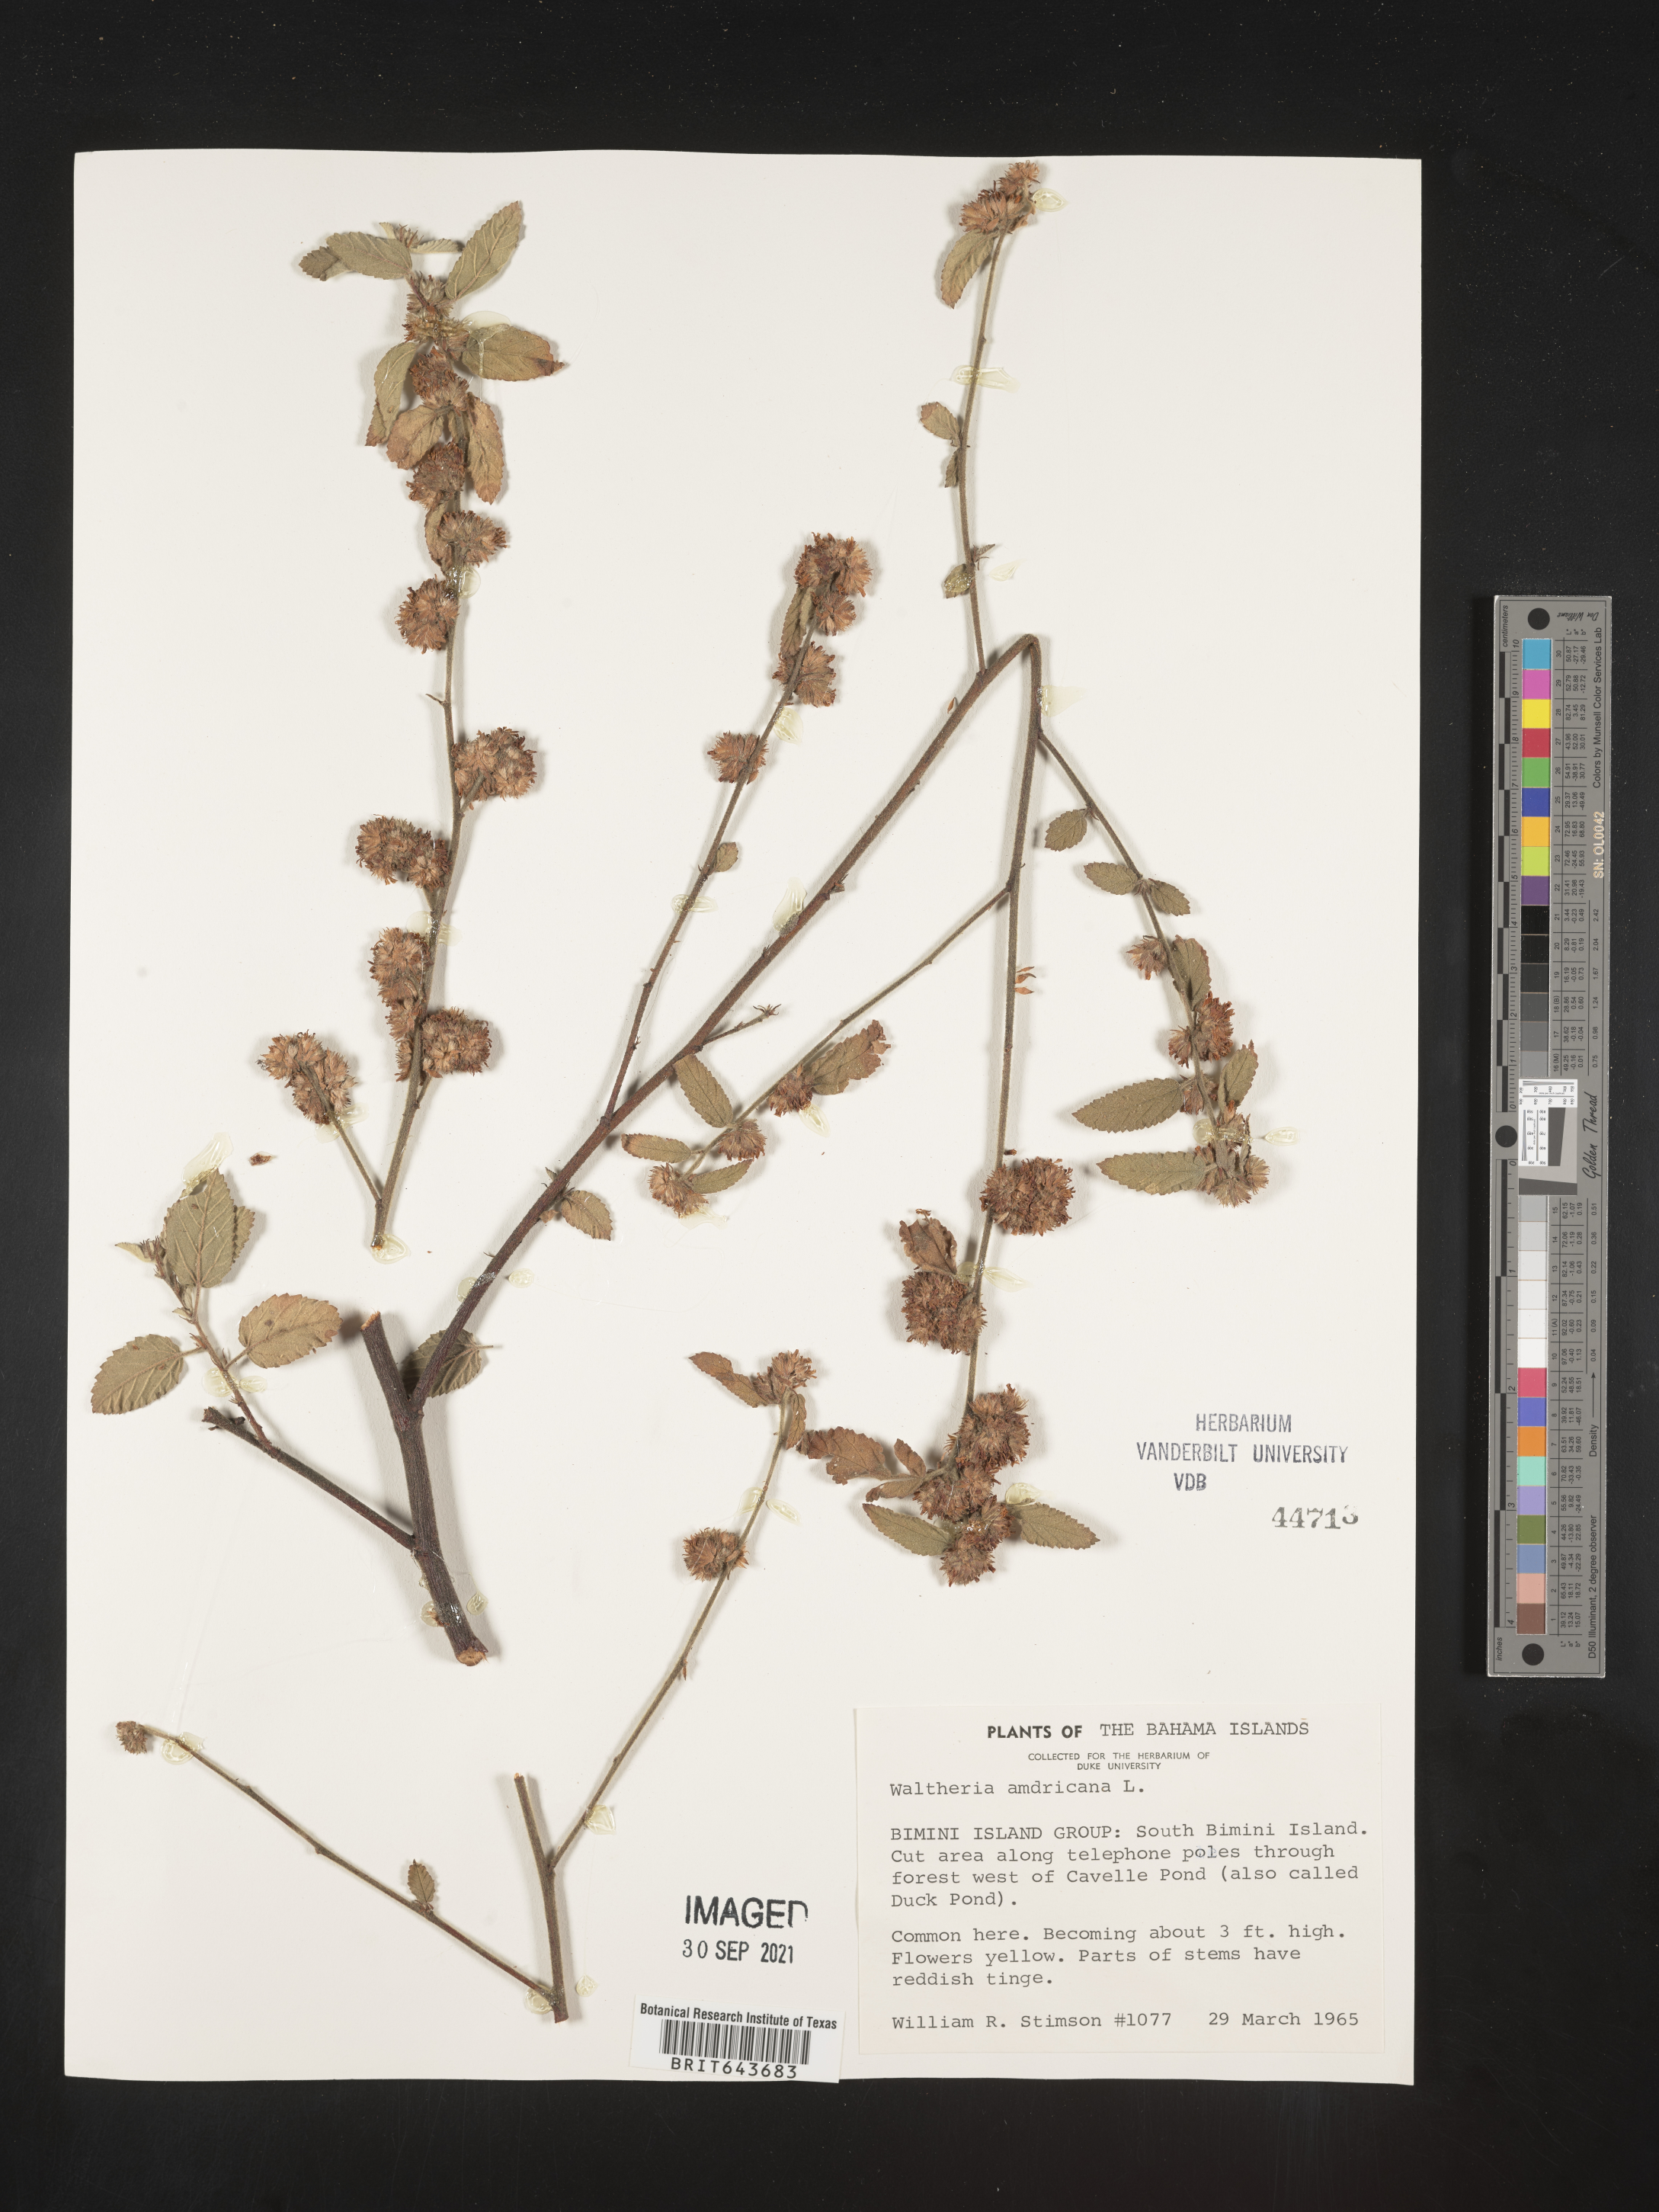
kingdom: Plantae
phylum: Tracheophyta
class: Magnoliopsida
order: Malvales
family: Malvaceae
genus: Waltheria
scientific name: Waltheria
